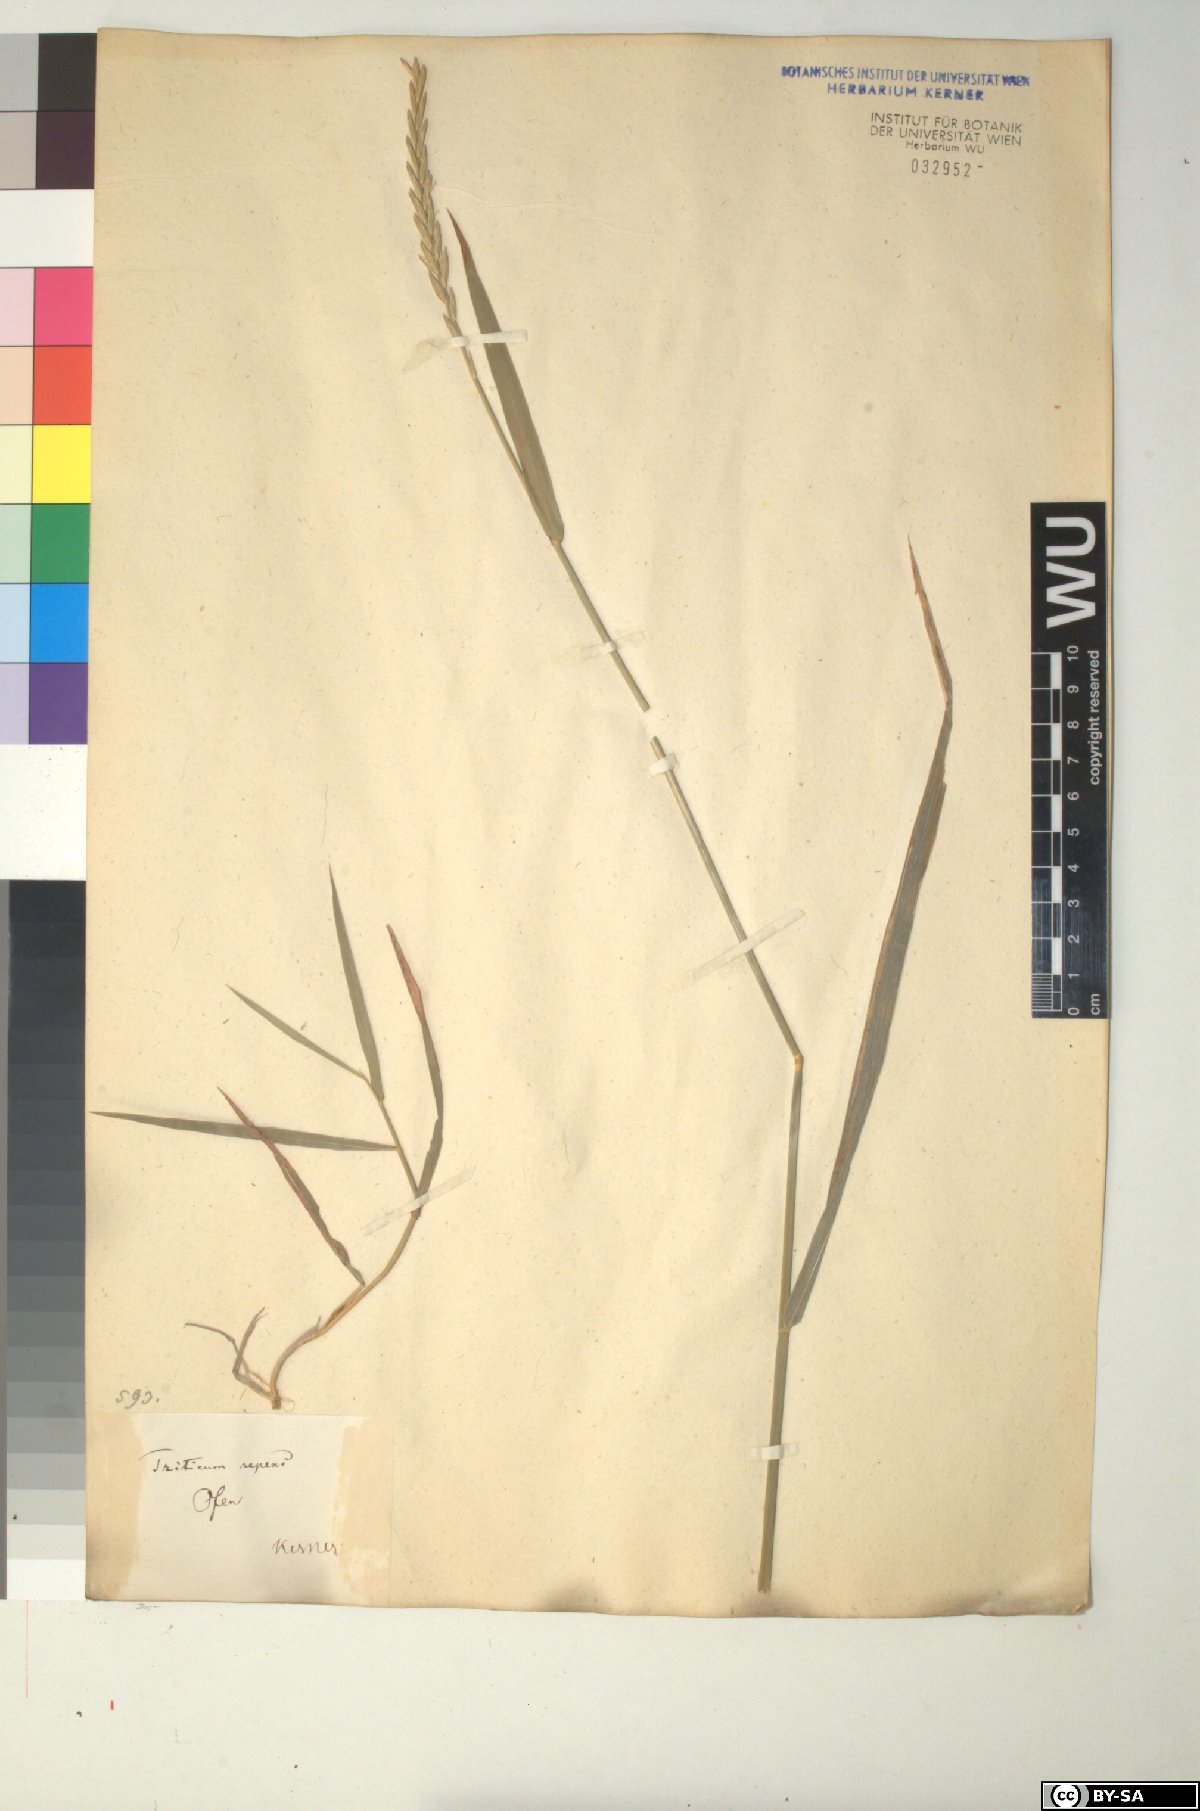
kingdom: Plantae
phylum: Tracheophyta
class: Liliopsida
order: Poales
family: Poaceae
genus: Elymus
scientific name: Elymus repens
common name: Quackgrass
